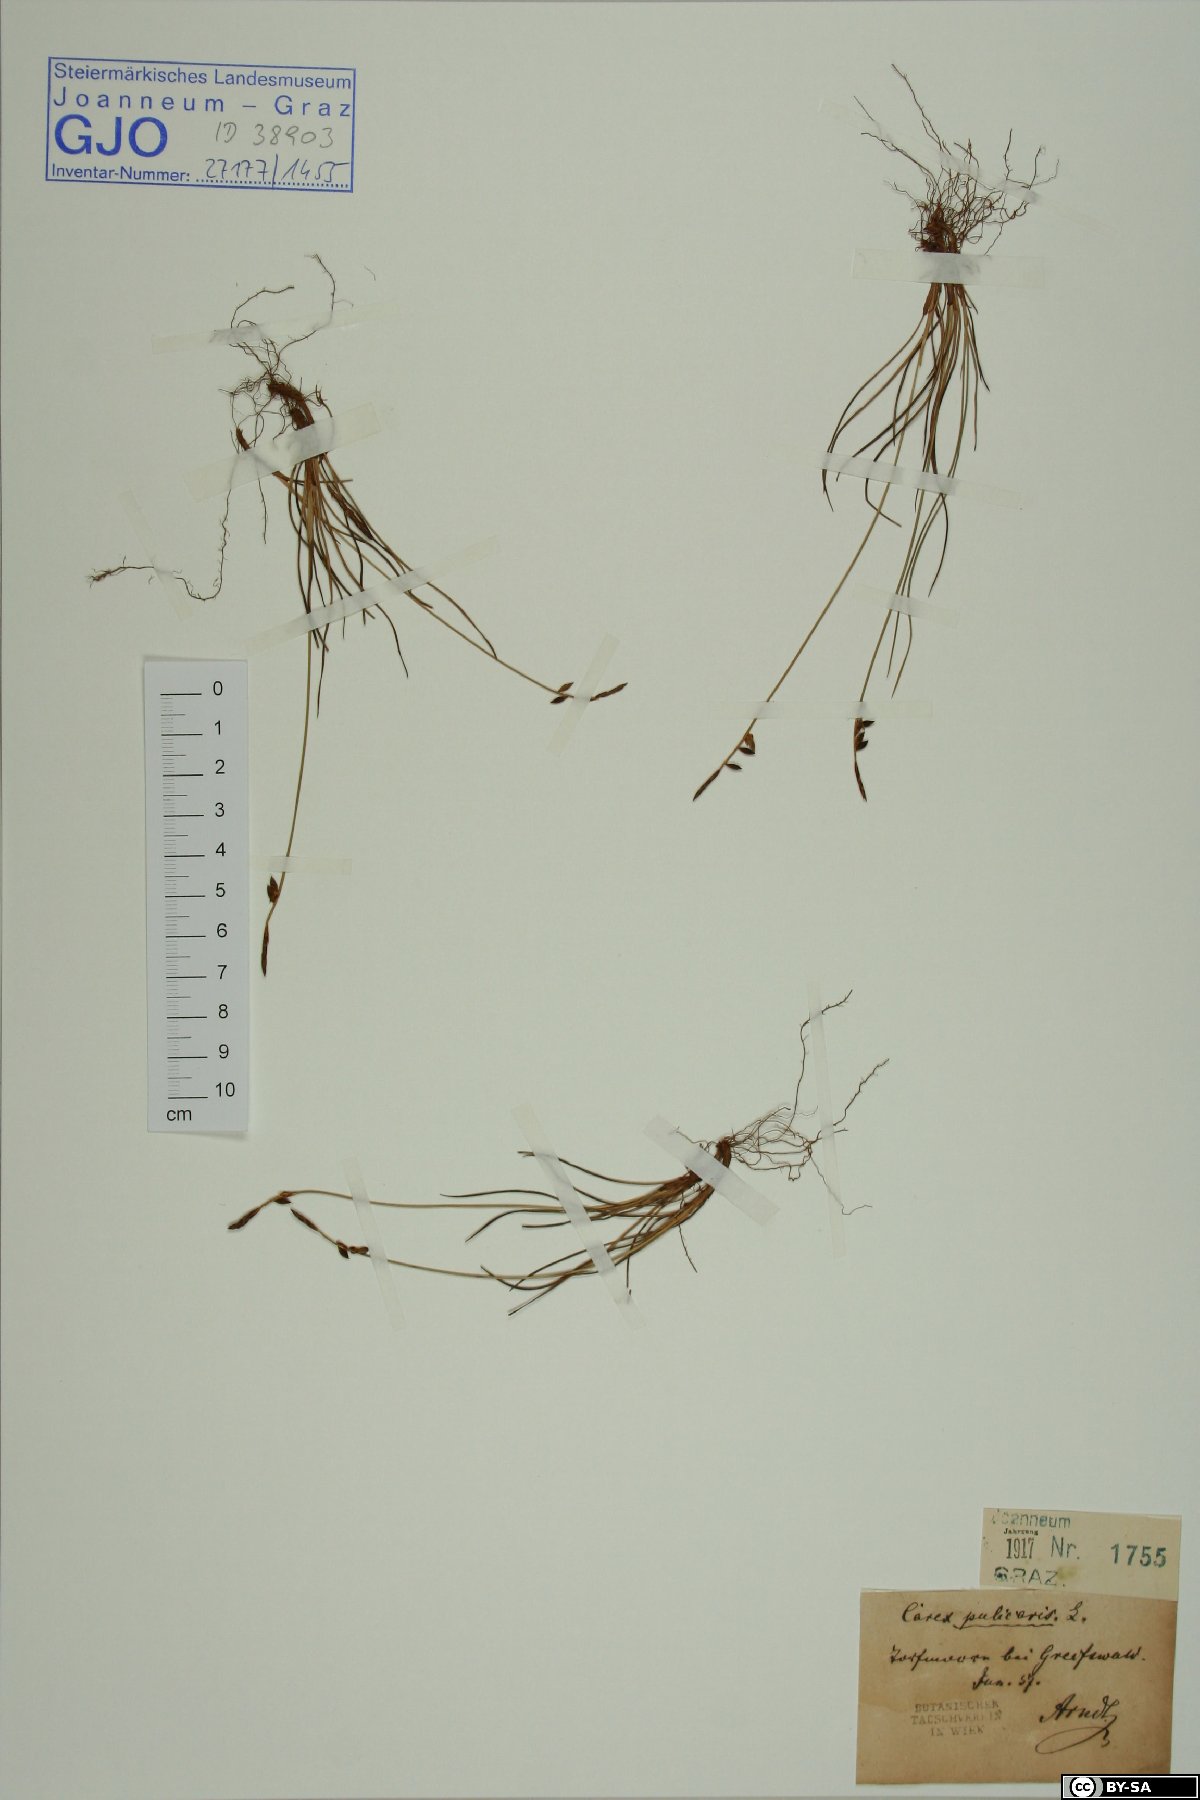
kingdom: Plantae
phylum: Tracheophyta
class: Liliopsida
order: Poales
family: Cyperaceae
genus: Carex
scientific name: Carex pulicaris
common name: Flea sedge
